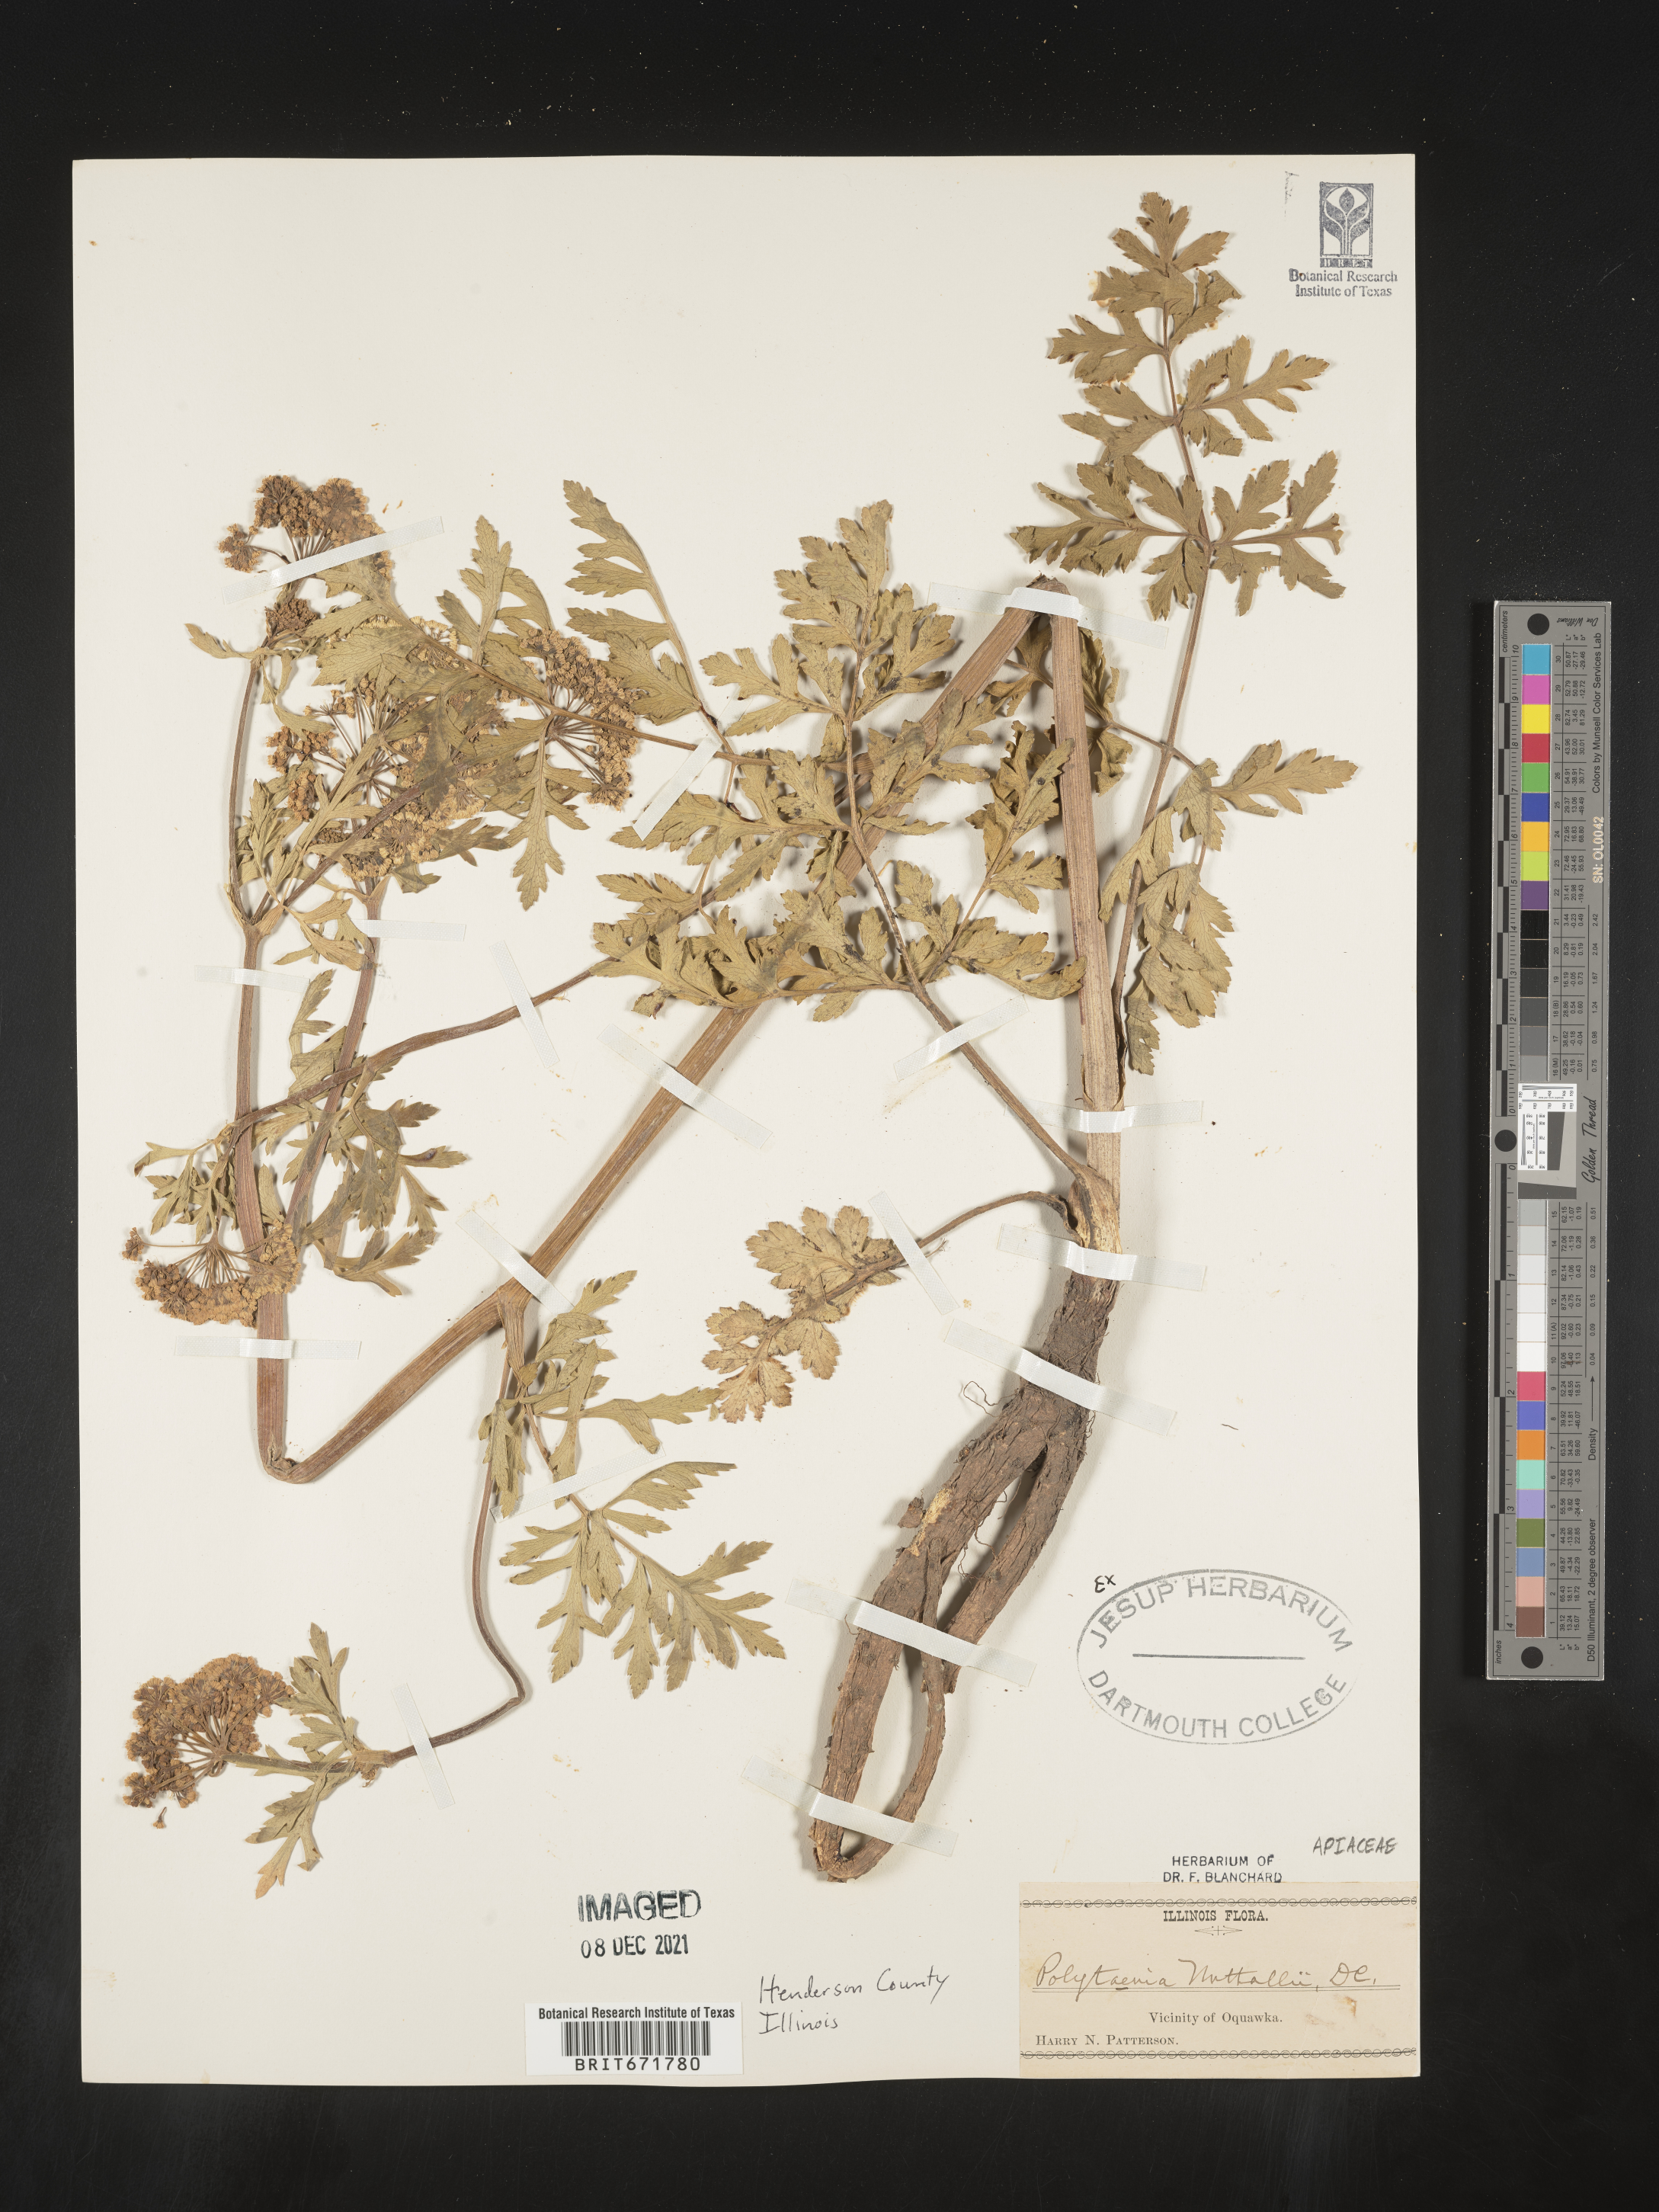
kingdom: Plantae
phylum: Tracheophyta
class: Magnoliopsida
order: Apiales
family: Apiaceae
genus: Polytaenia
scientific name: Polytaenia nuttallii
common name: Prairie-parsley
